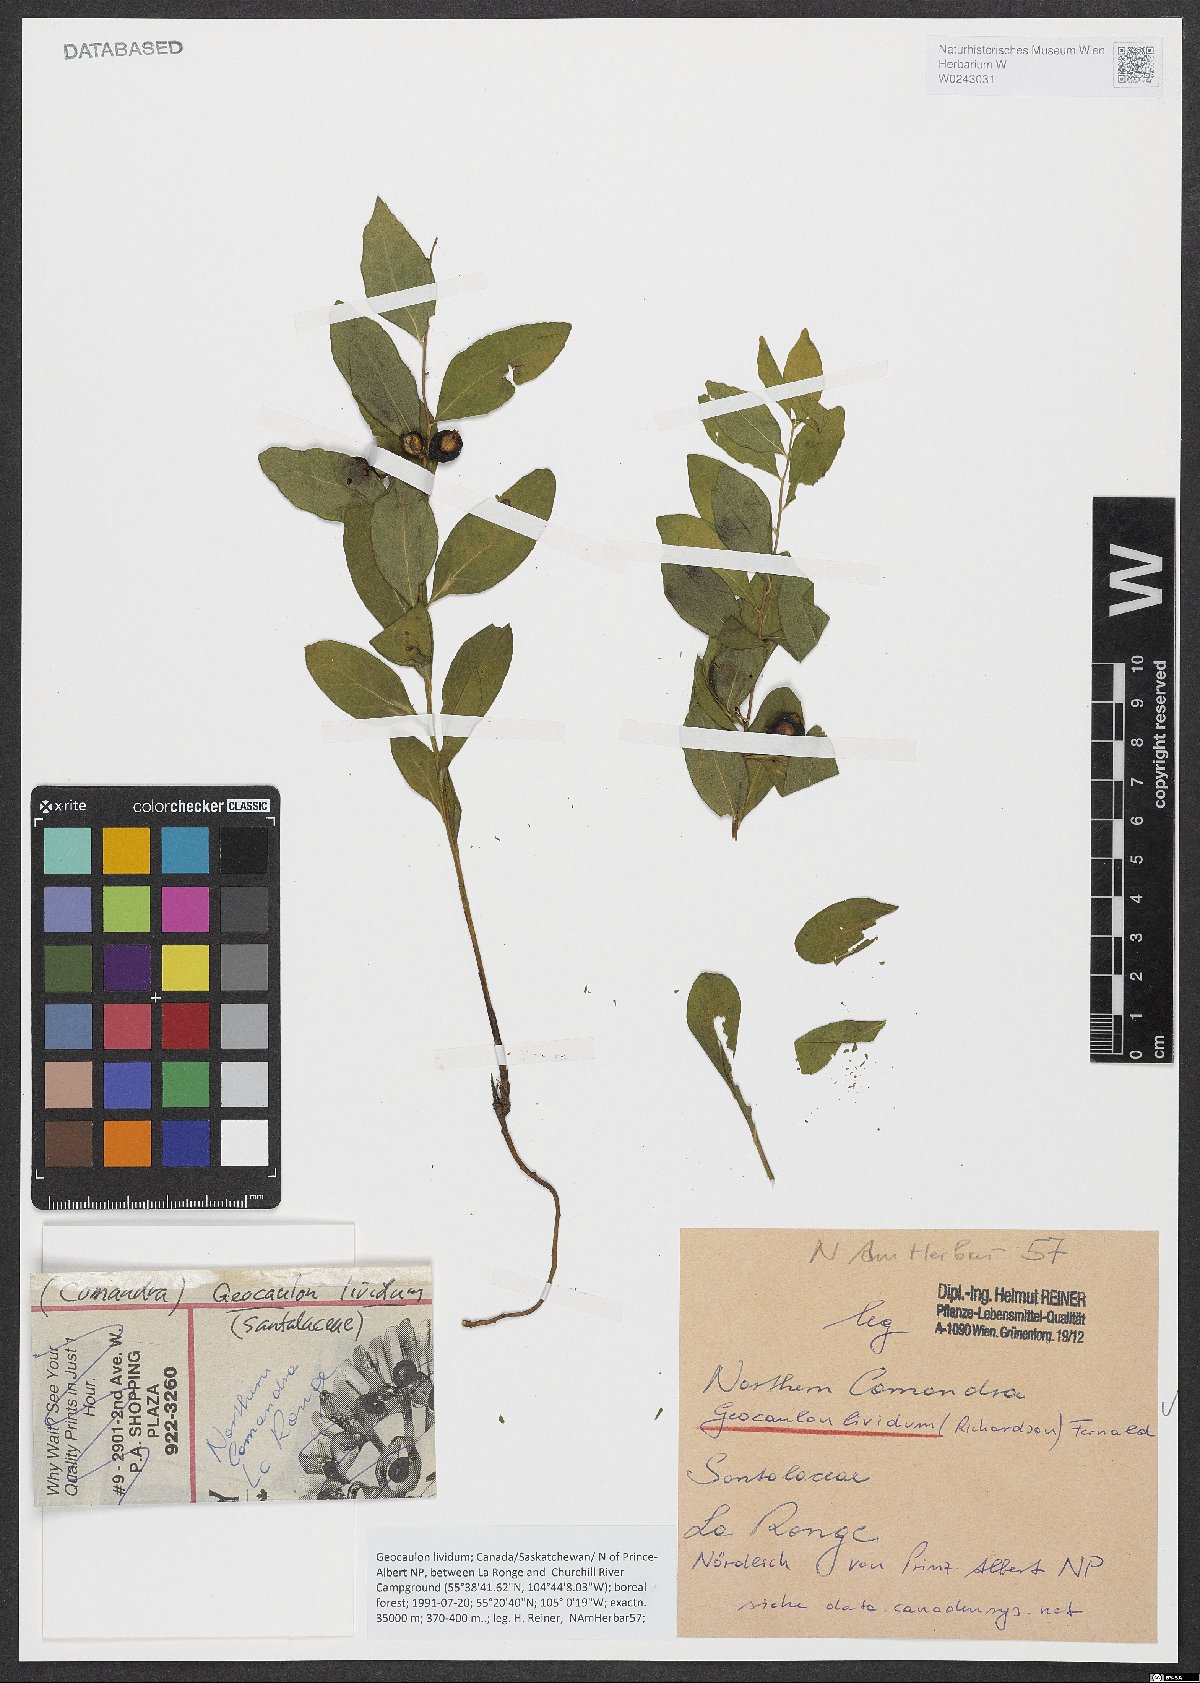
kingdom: Plantae
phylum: Tracheophyta
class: Magnoliopsida
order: Santalales
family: Comandraceae
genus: Geocaulon
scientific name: Geocaulon lividum
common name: Earthberry
